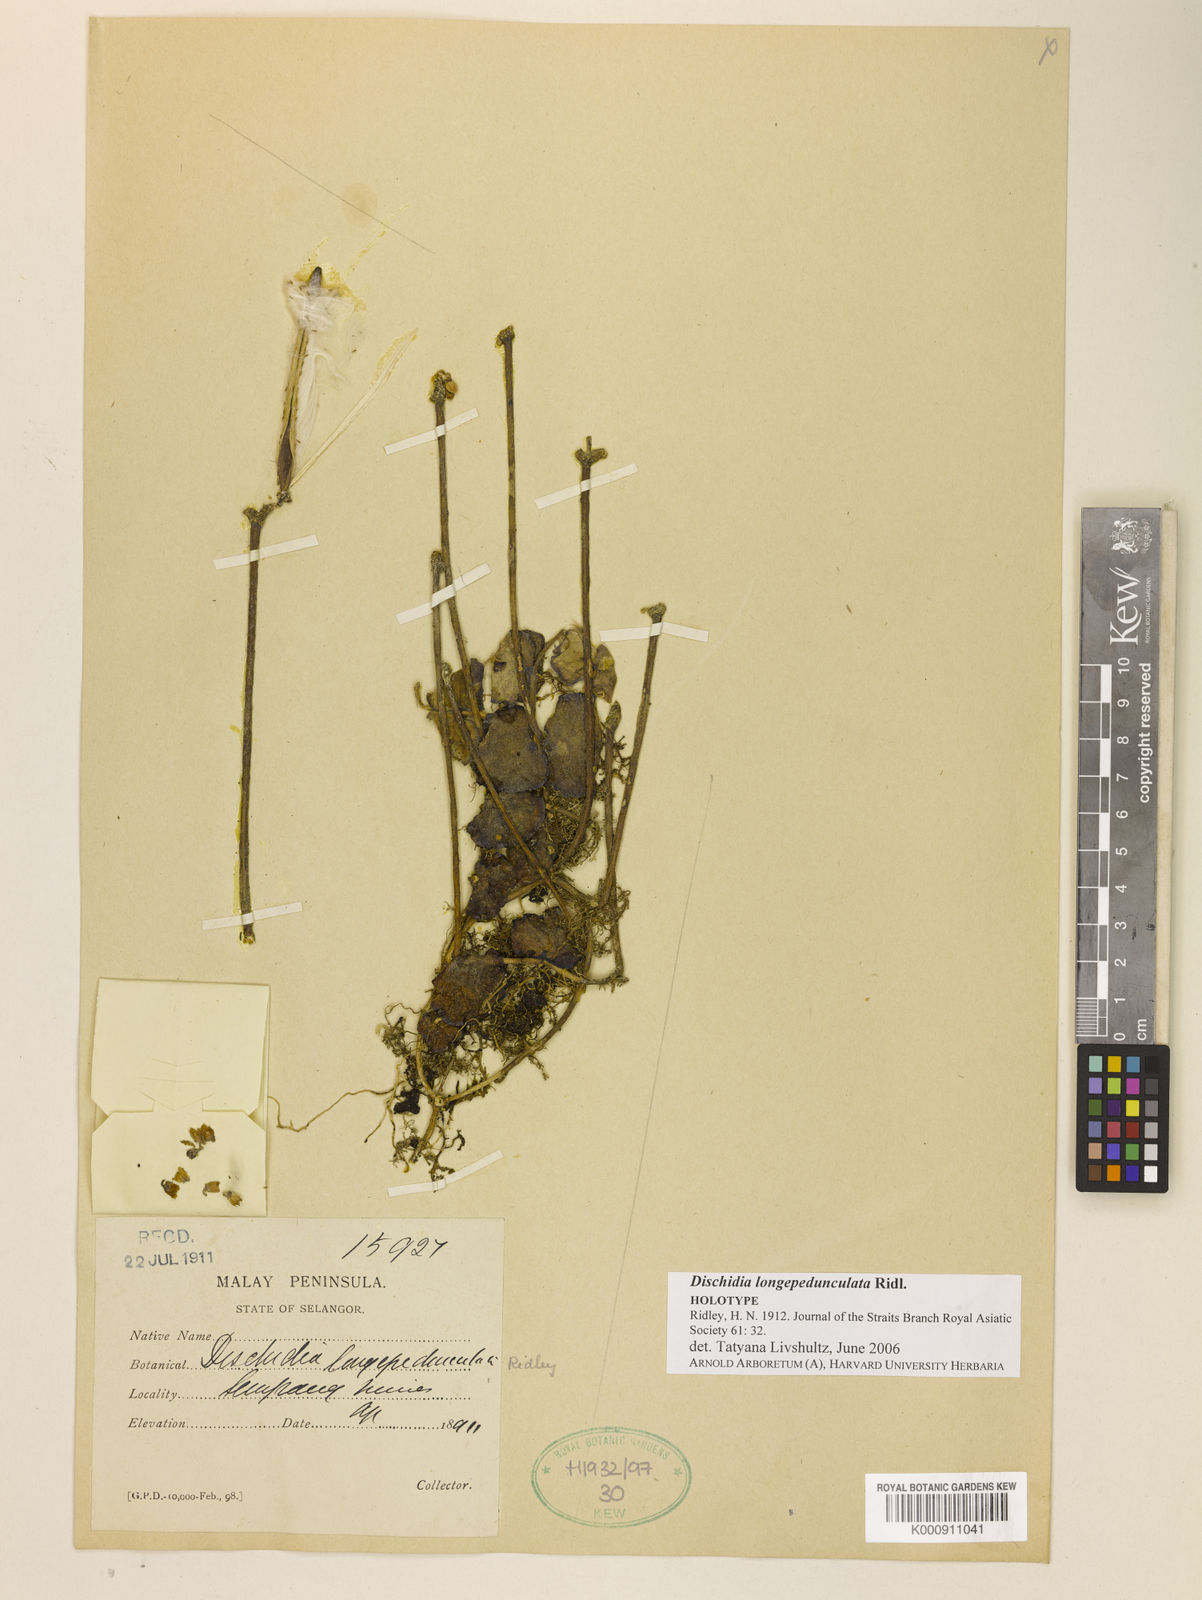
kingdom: Plantae
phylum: Tracheophyta
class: Magnoliopsida
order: Gentianales
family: Apocynaceae
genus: Dischidia
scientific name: Dischidia longe-pedunculata
